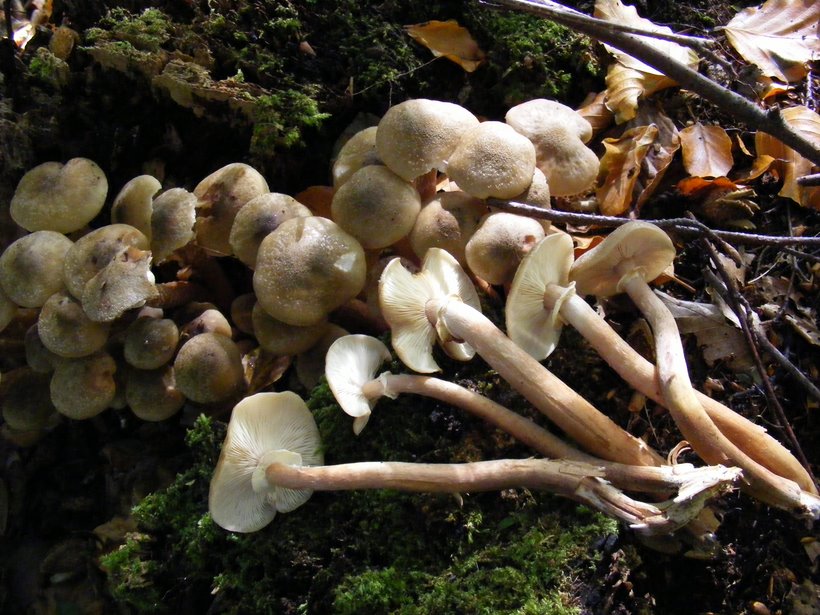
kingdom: Fungi
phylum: Basidiomycota
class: Agaricomycetes
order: Agaricales
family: Physalacriaceae
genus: Armillaria
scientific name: Armillaria mellea
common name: ægte honningsvamp
